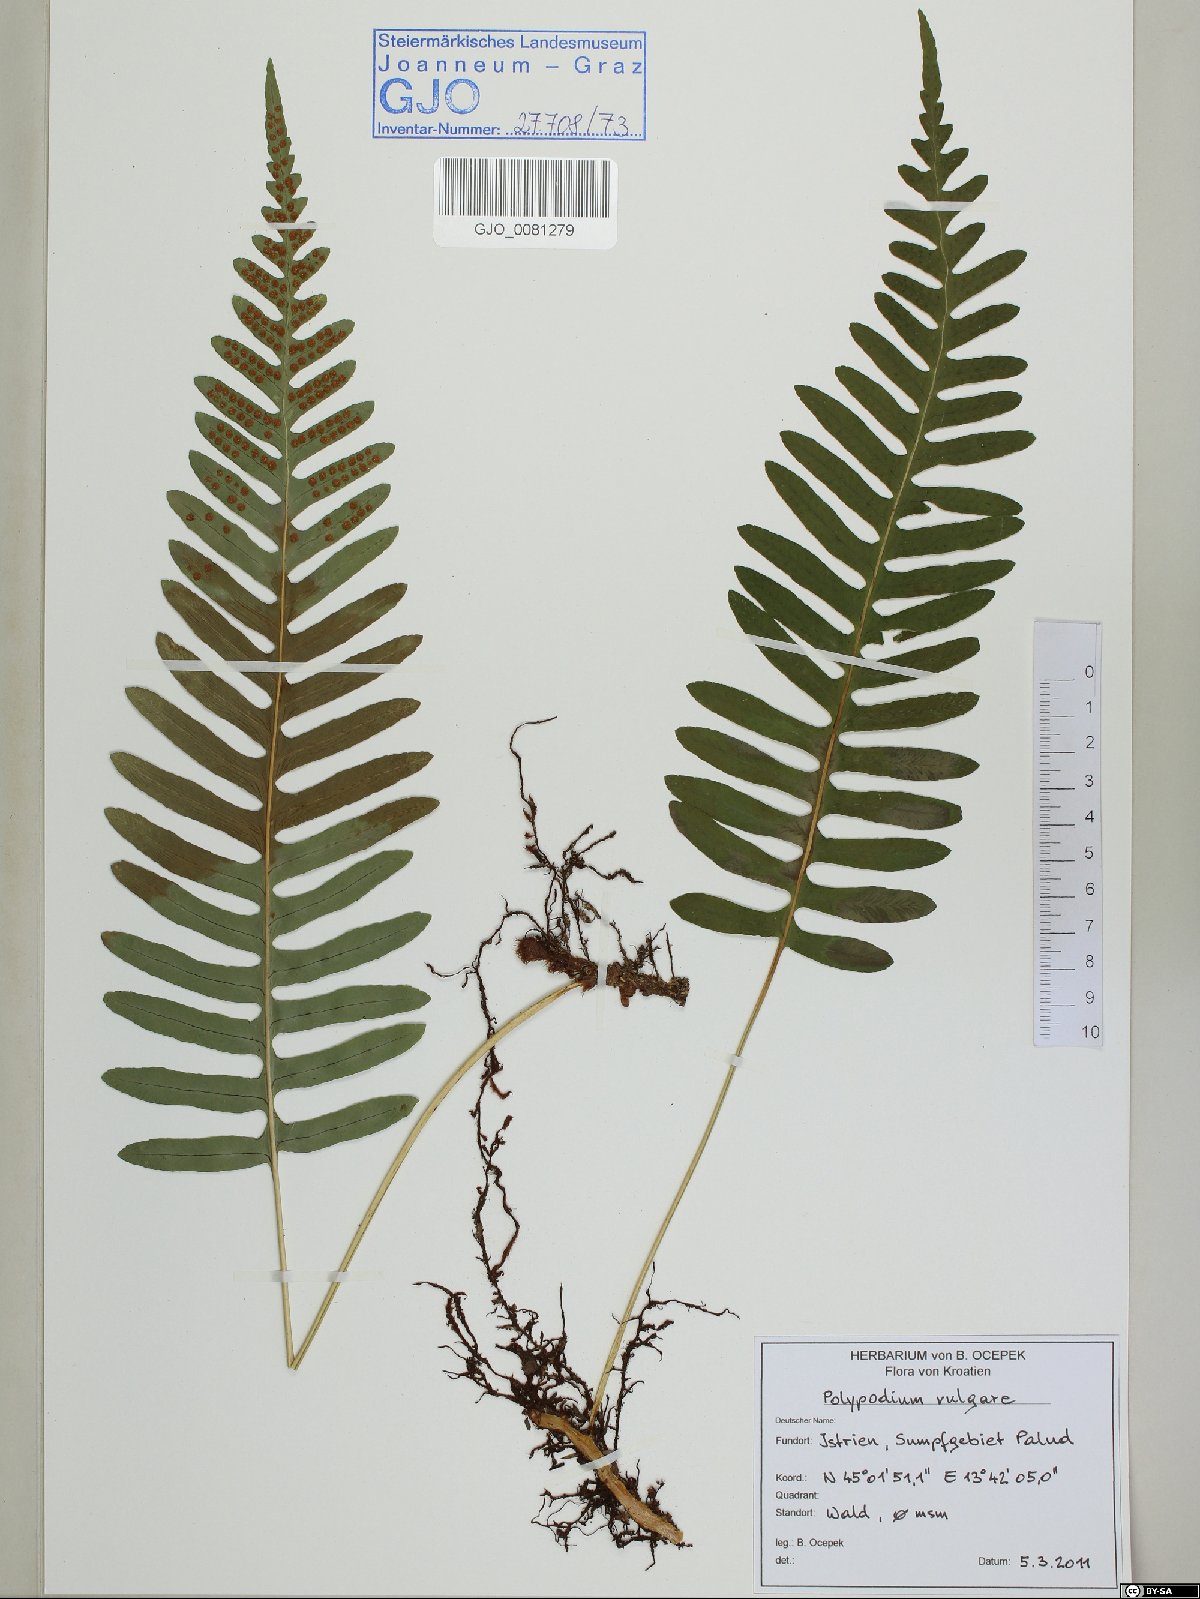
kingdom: Plantae
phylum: Tracheophyta
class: Polypodiopsida
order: Polypodiales
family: Polypodiaceae
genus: Polypodium
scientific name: Polypodium vulgare
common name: Common polypody
